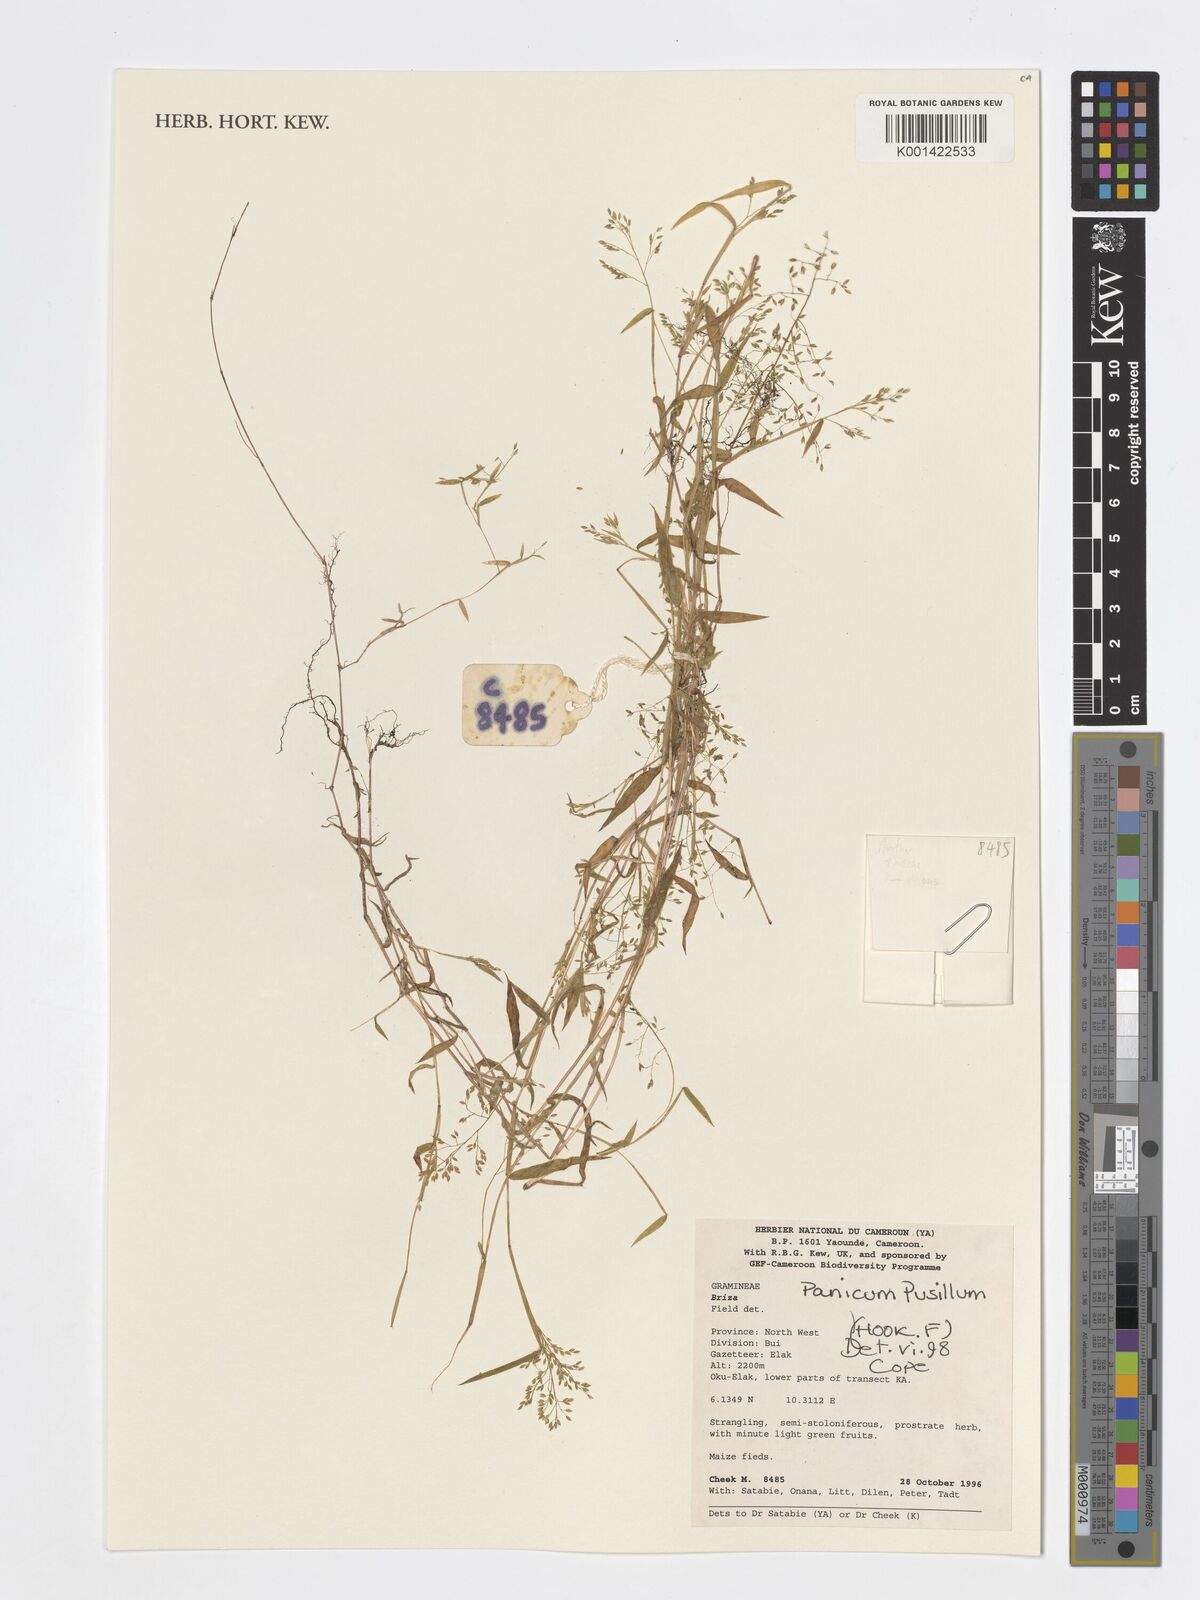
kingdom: Plantae
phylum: Tracheophyta
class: Liliopsida
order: Poales
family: Poaceae
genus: Panicum
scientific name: Panicum pusillum
